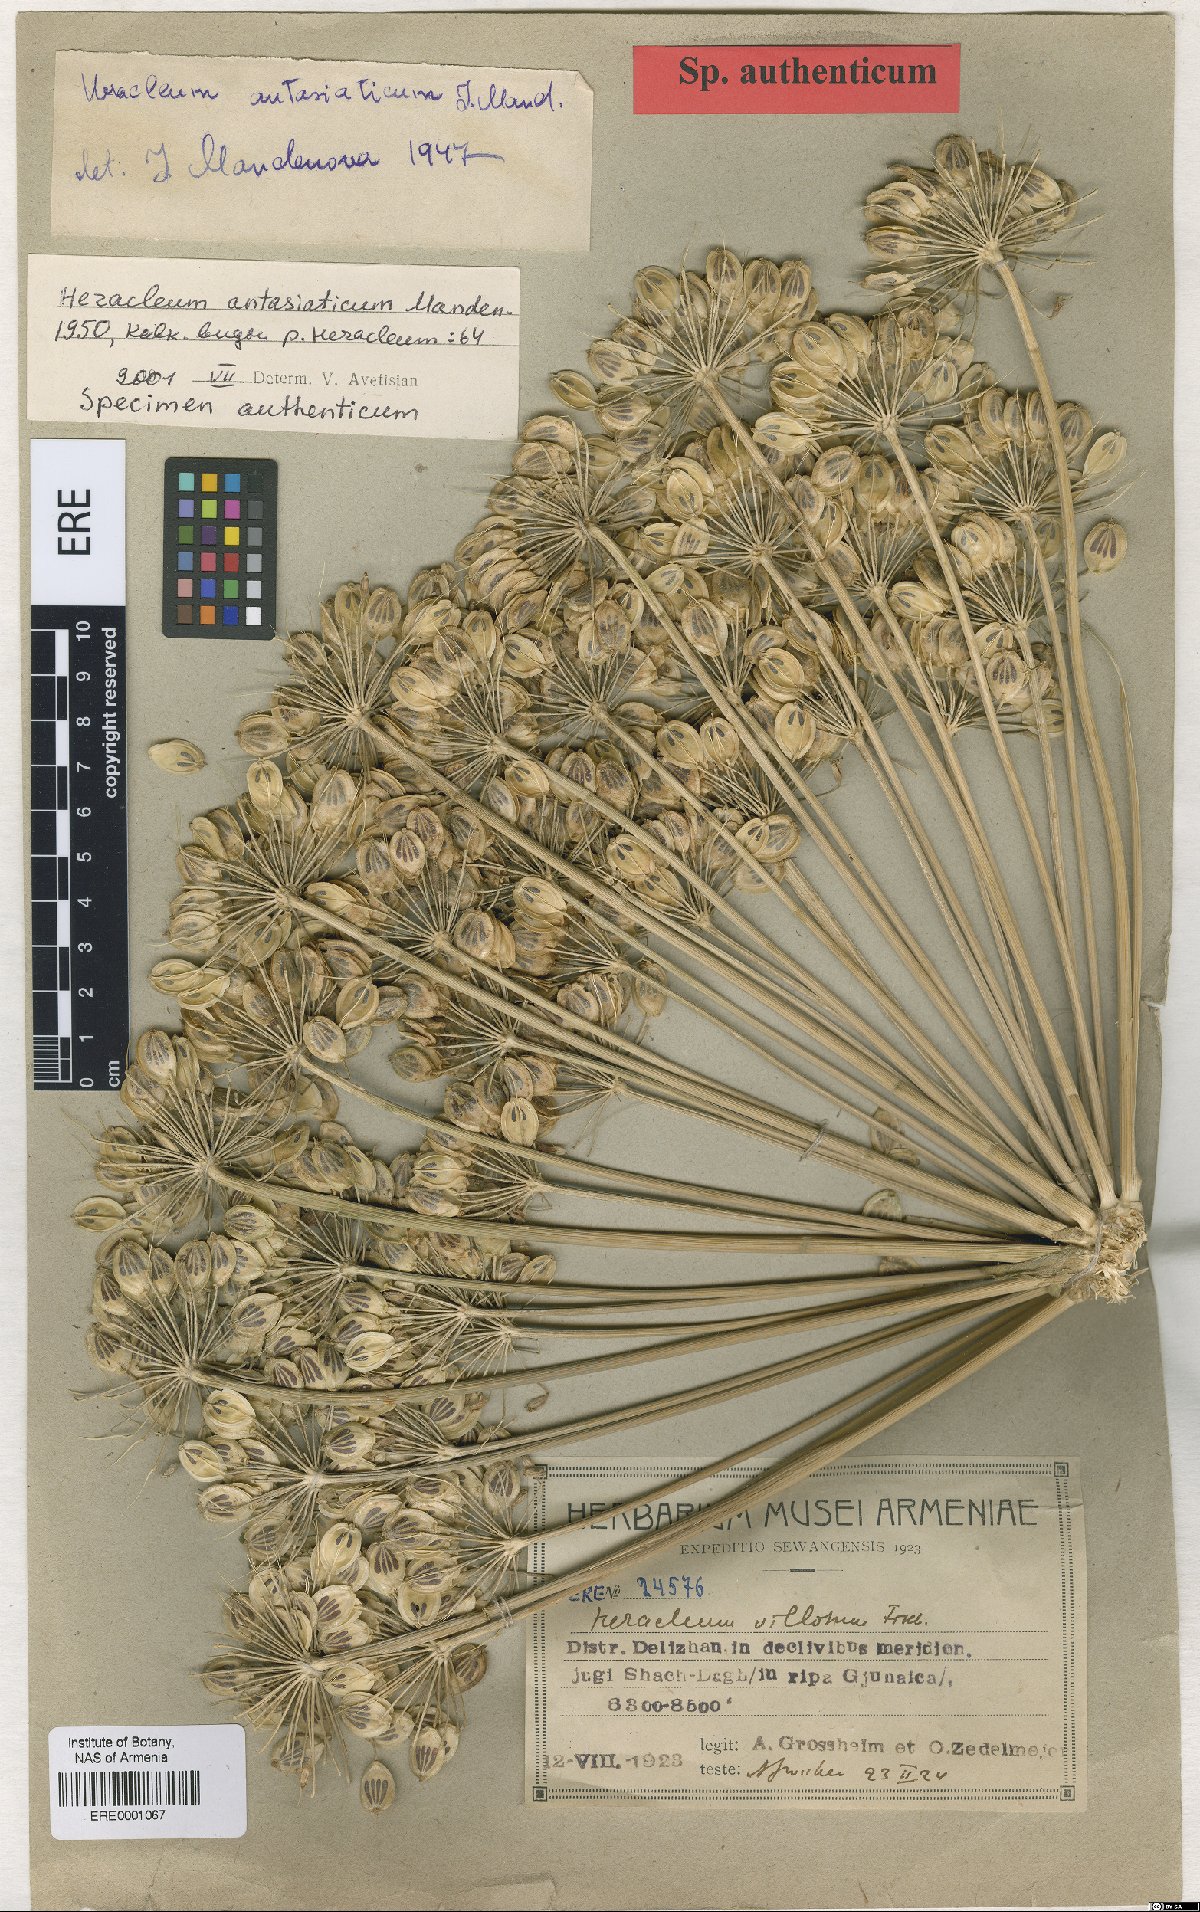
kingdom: Plantae
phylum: Tracheophyta
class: Magnoliopsida
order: Apiales
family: Apiaceae
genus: Heracleum
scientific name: Heracleum antasiaticum
